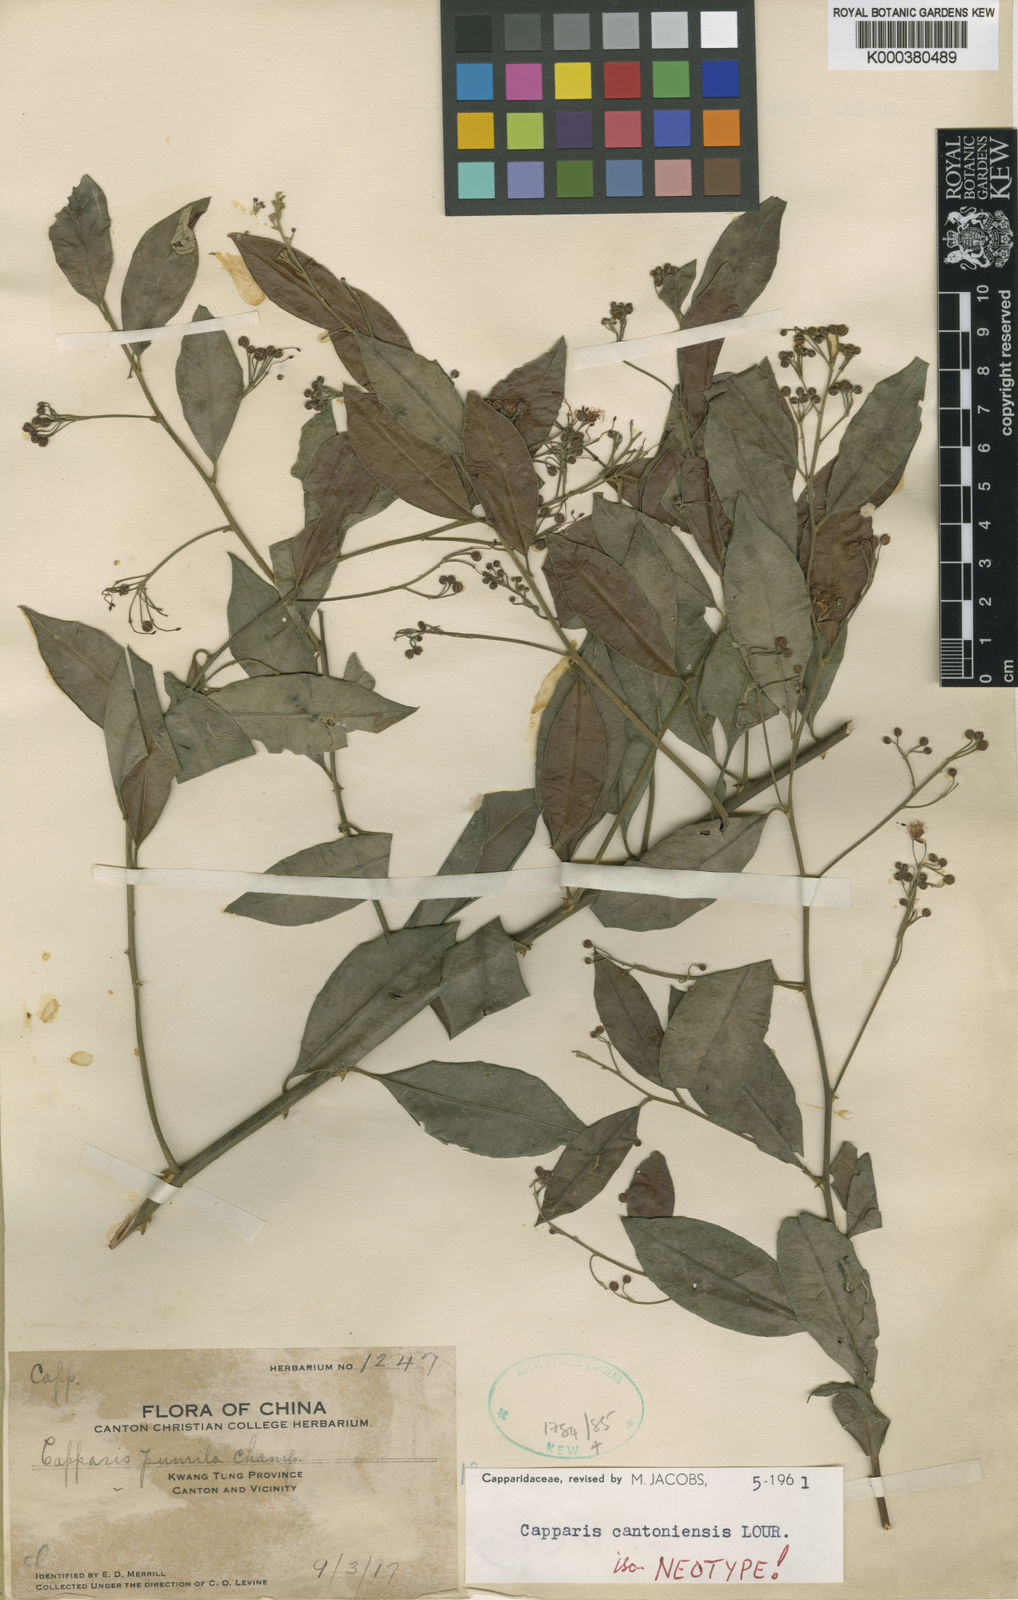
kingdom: Plantae
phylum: Tracheophyta
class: Magnoliopsida
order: Brassicales
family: Capparaceae
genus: Capparis
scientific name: Capparis cantoniensis
